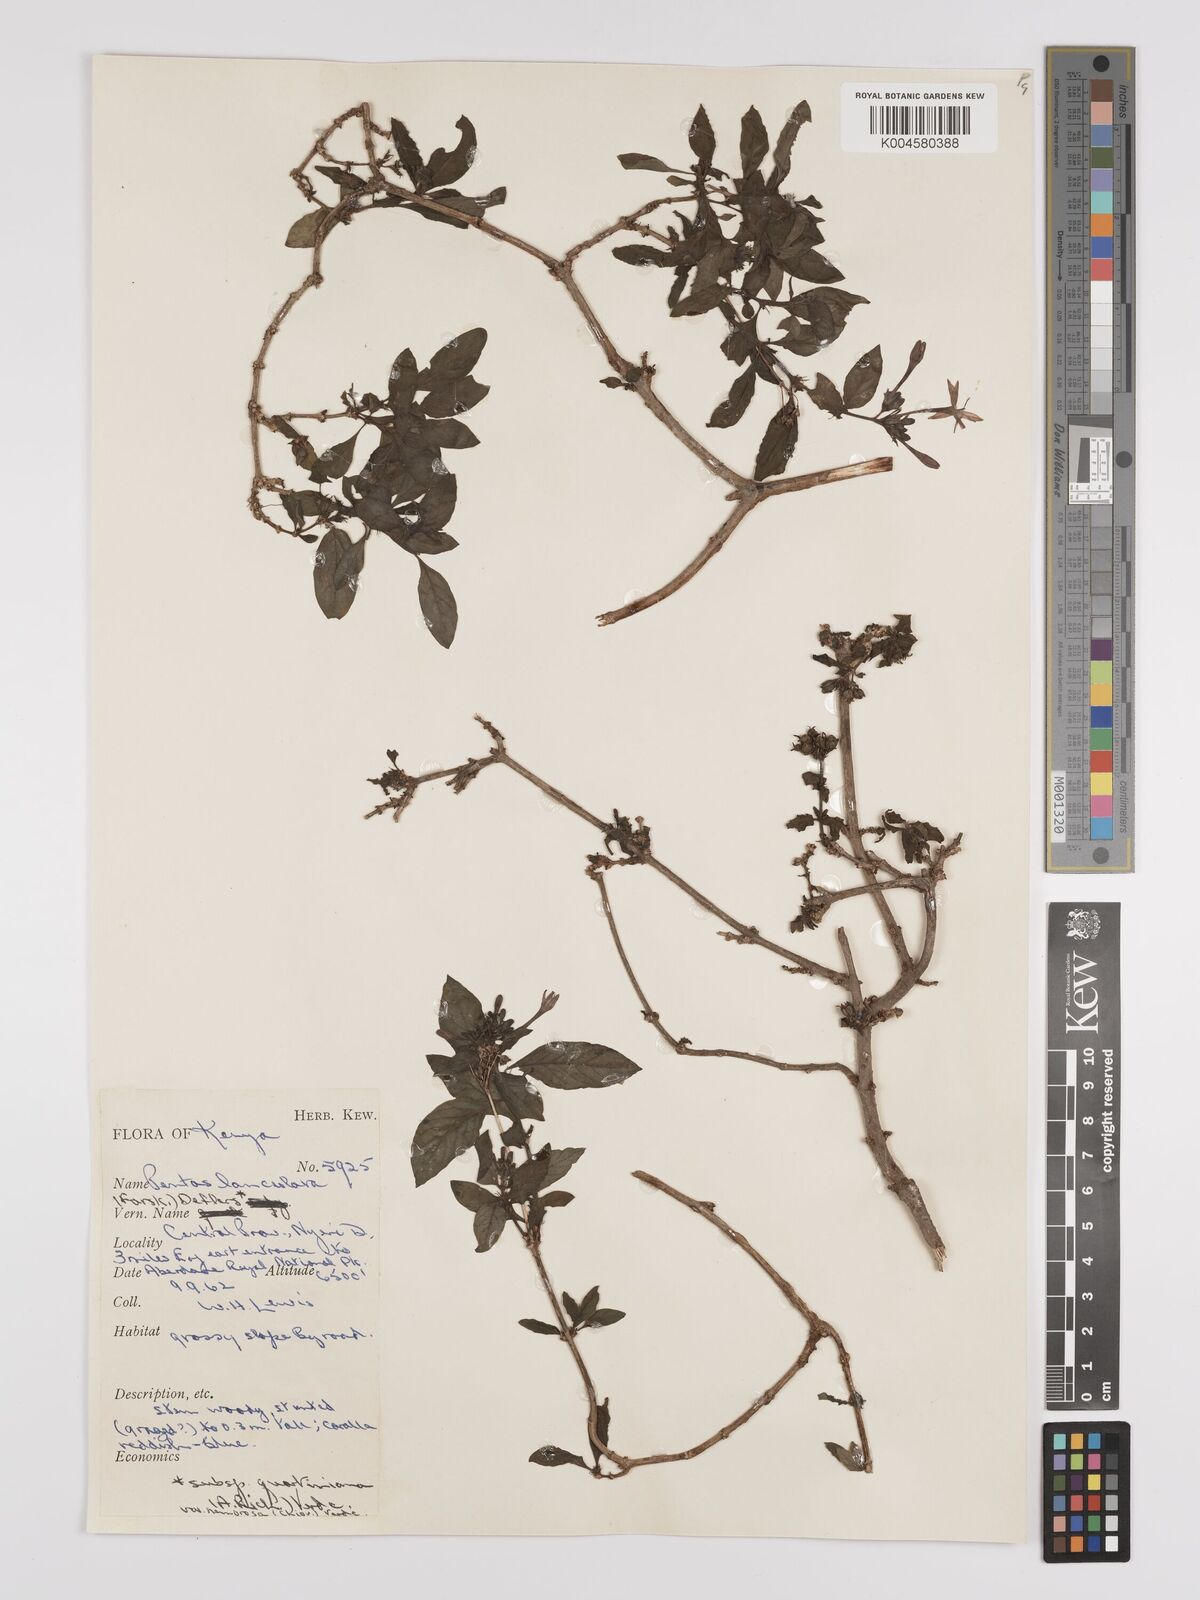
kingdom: Plantae
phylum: Tracheophyta
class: Magnoliopsida
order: Gentianales
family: Rubiaceae
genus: Pentas
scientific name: Pentas
